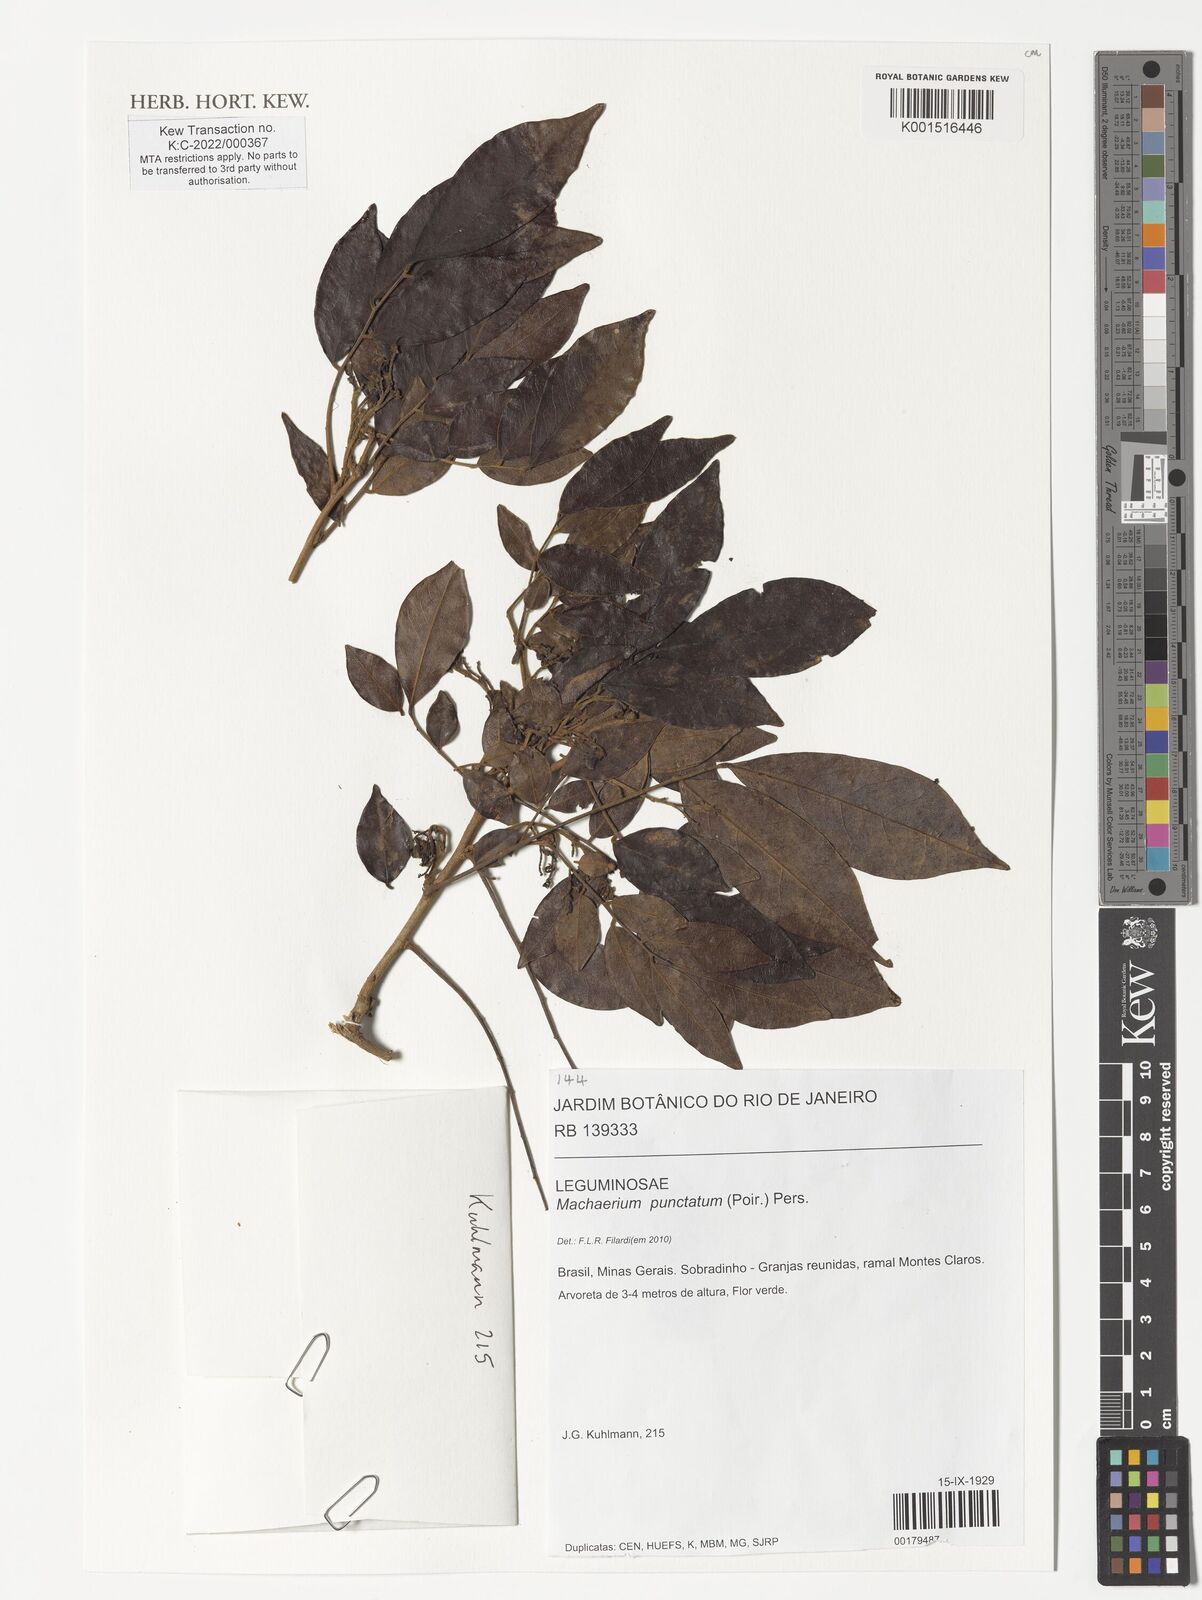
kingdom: Plantae
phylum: Tracheophyta
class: Magnoliopsida
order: Fabales
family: Fabaceae
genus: Machaerium
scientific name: Machaerium punctatum
